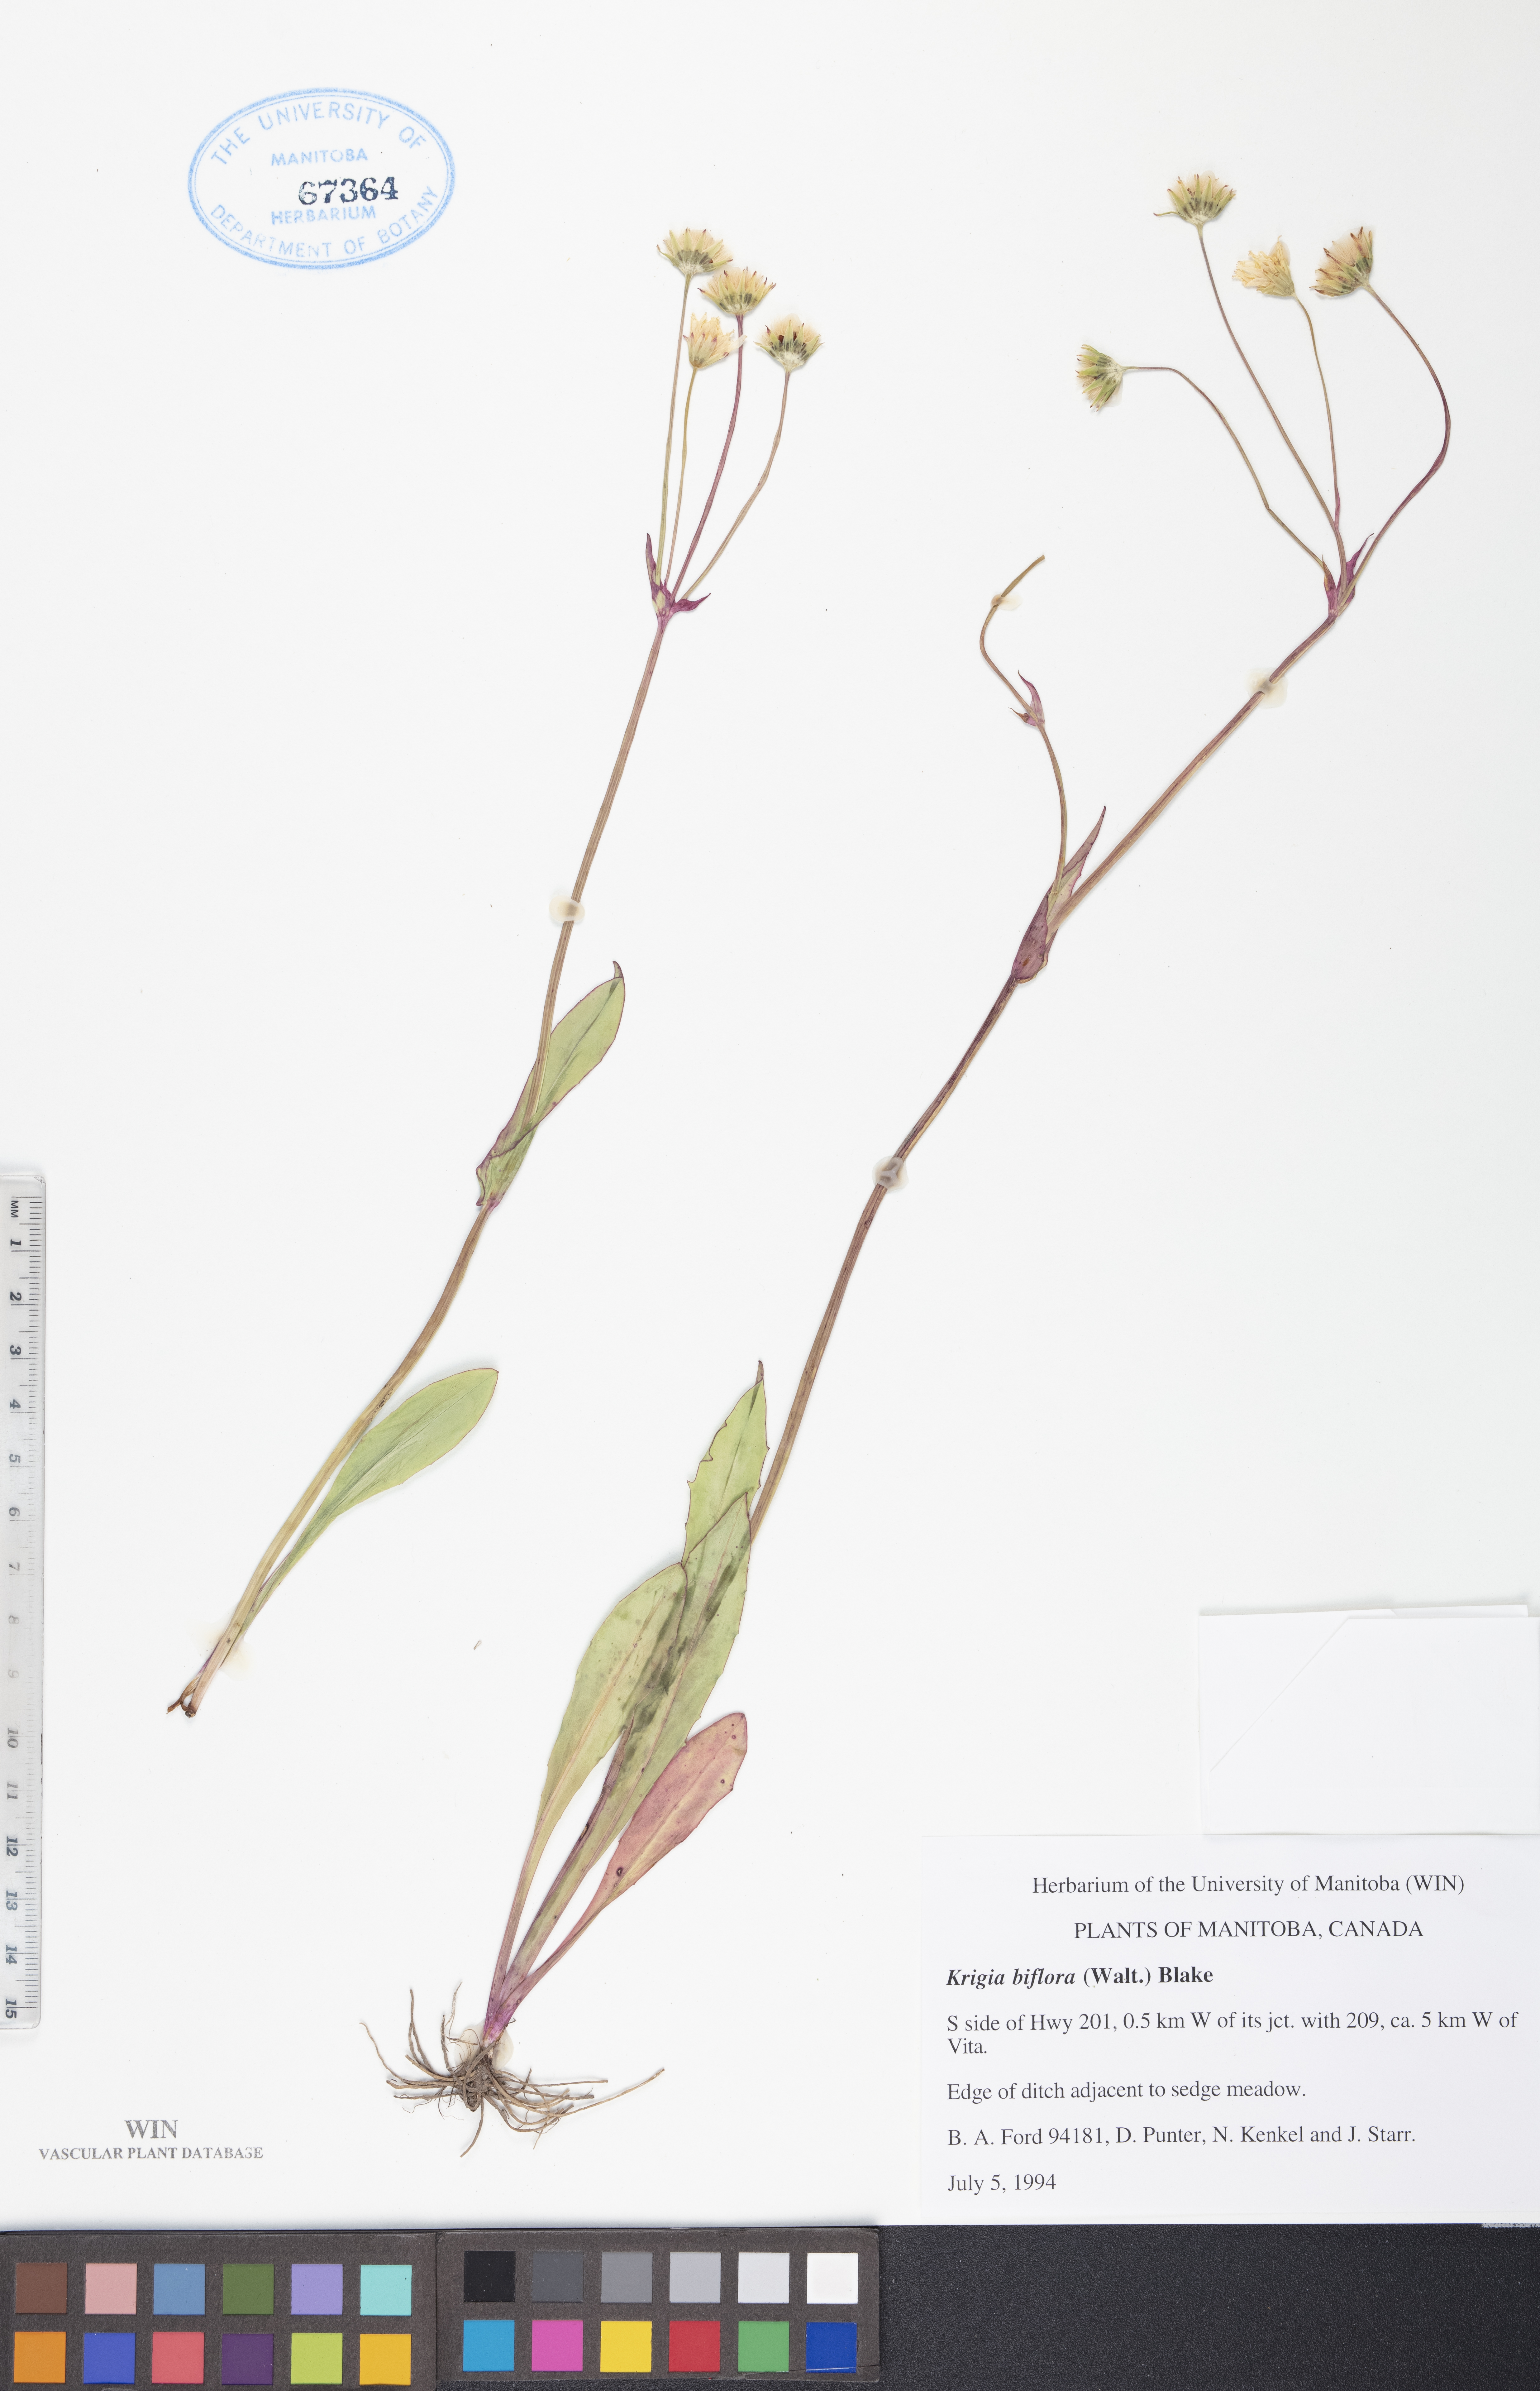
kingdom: Plantae
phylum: Tracheophyta
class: Magnoliopsida
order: Asterales
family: Asteraceae
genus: Krigia
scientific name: Krigia biflora
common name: Orange dwarf-dandelion
